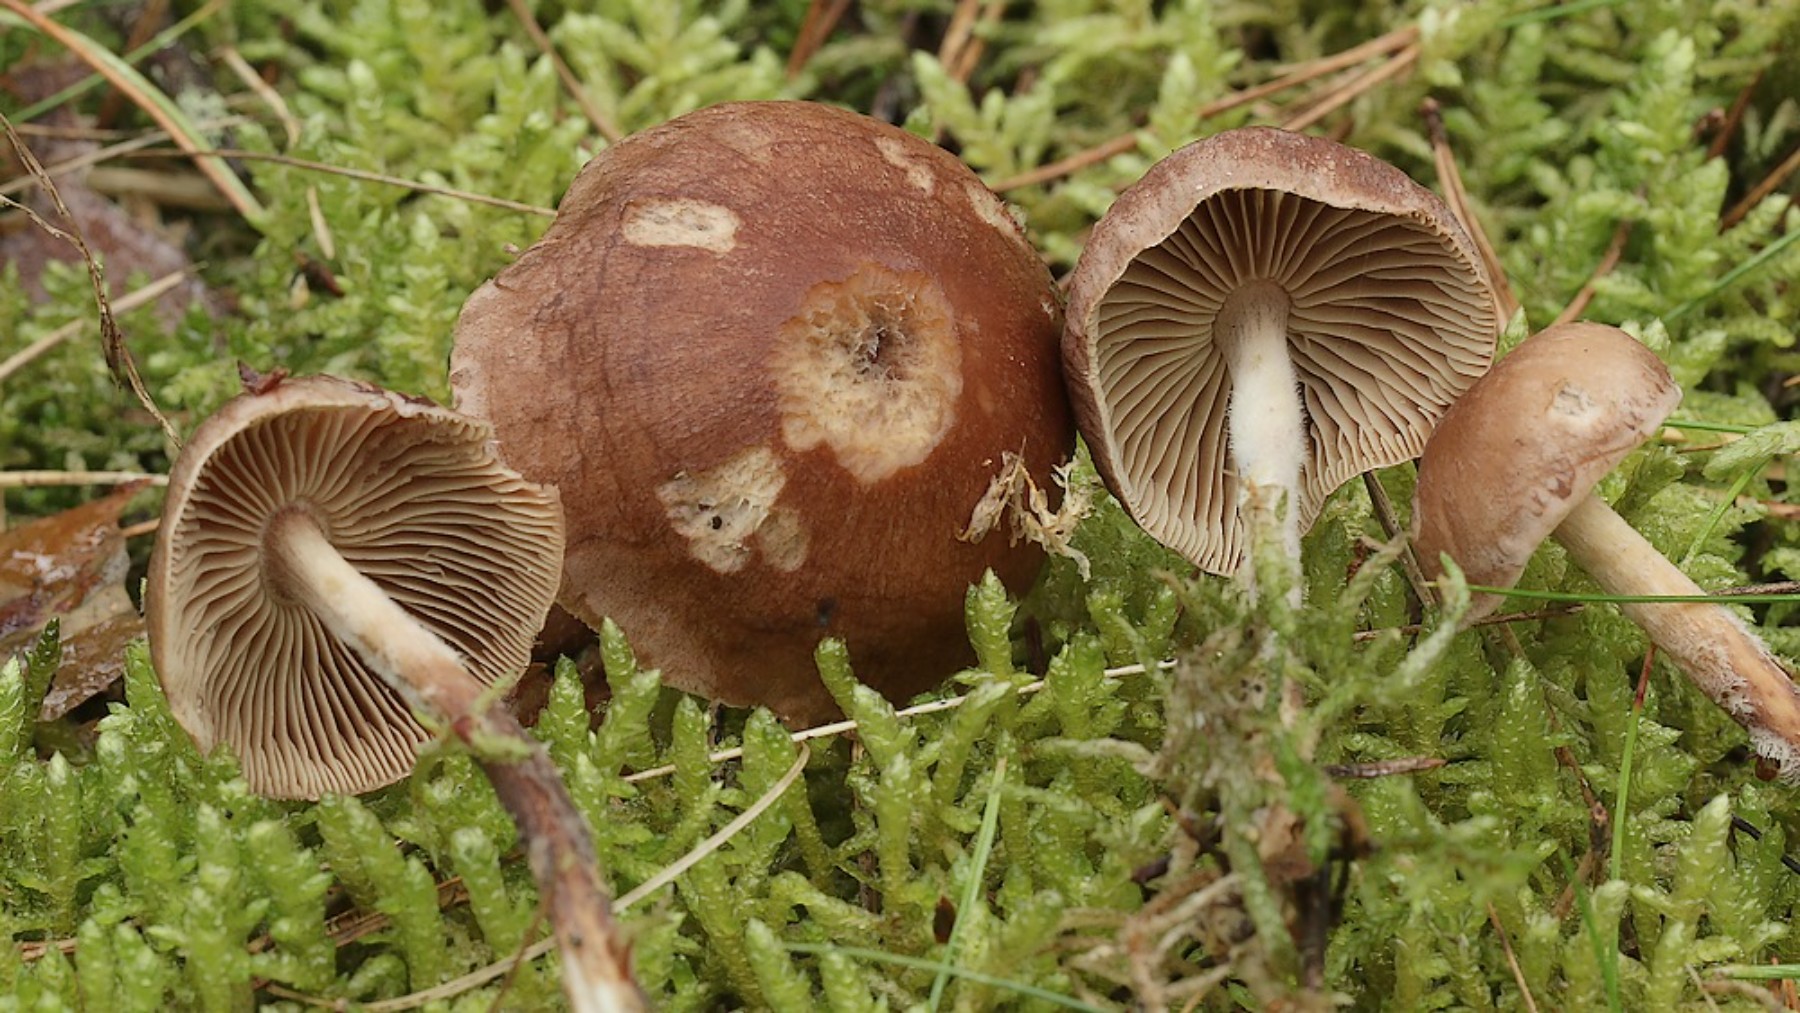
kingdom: Fungi
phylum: Basidiomycota
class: Agaricomycetes
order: Agaricales
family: Omphalotaceae
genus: Collybiopsis
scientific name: Collybiopsis peronata
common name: bestøvlet fladhat
